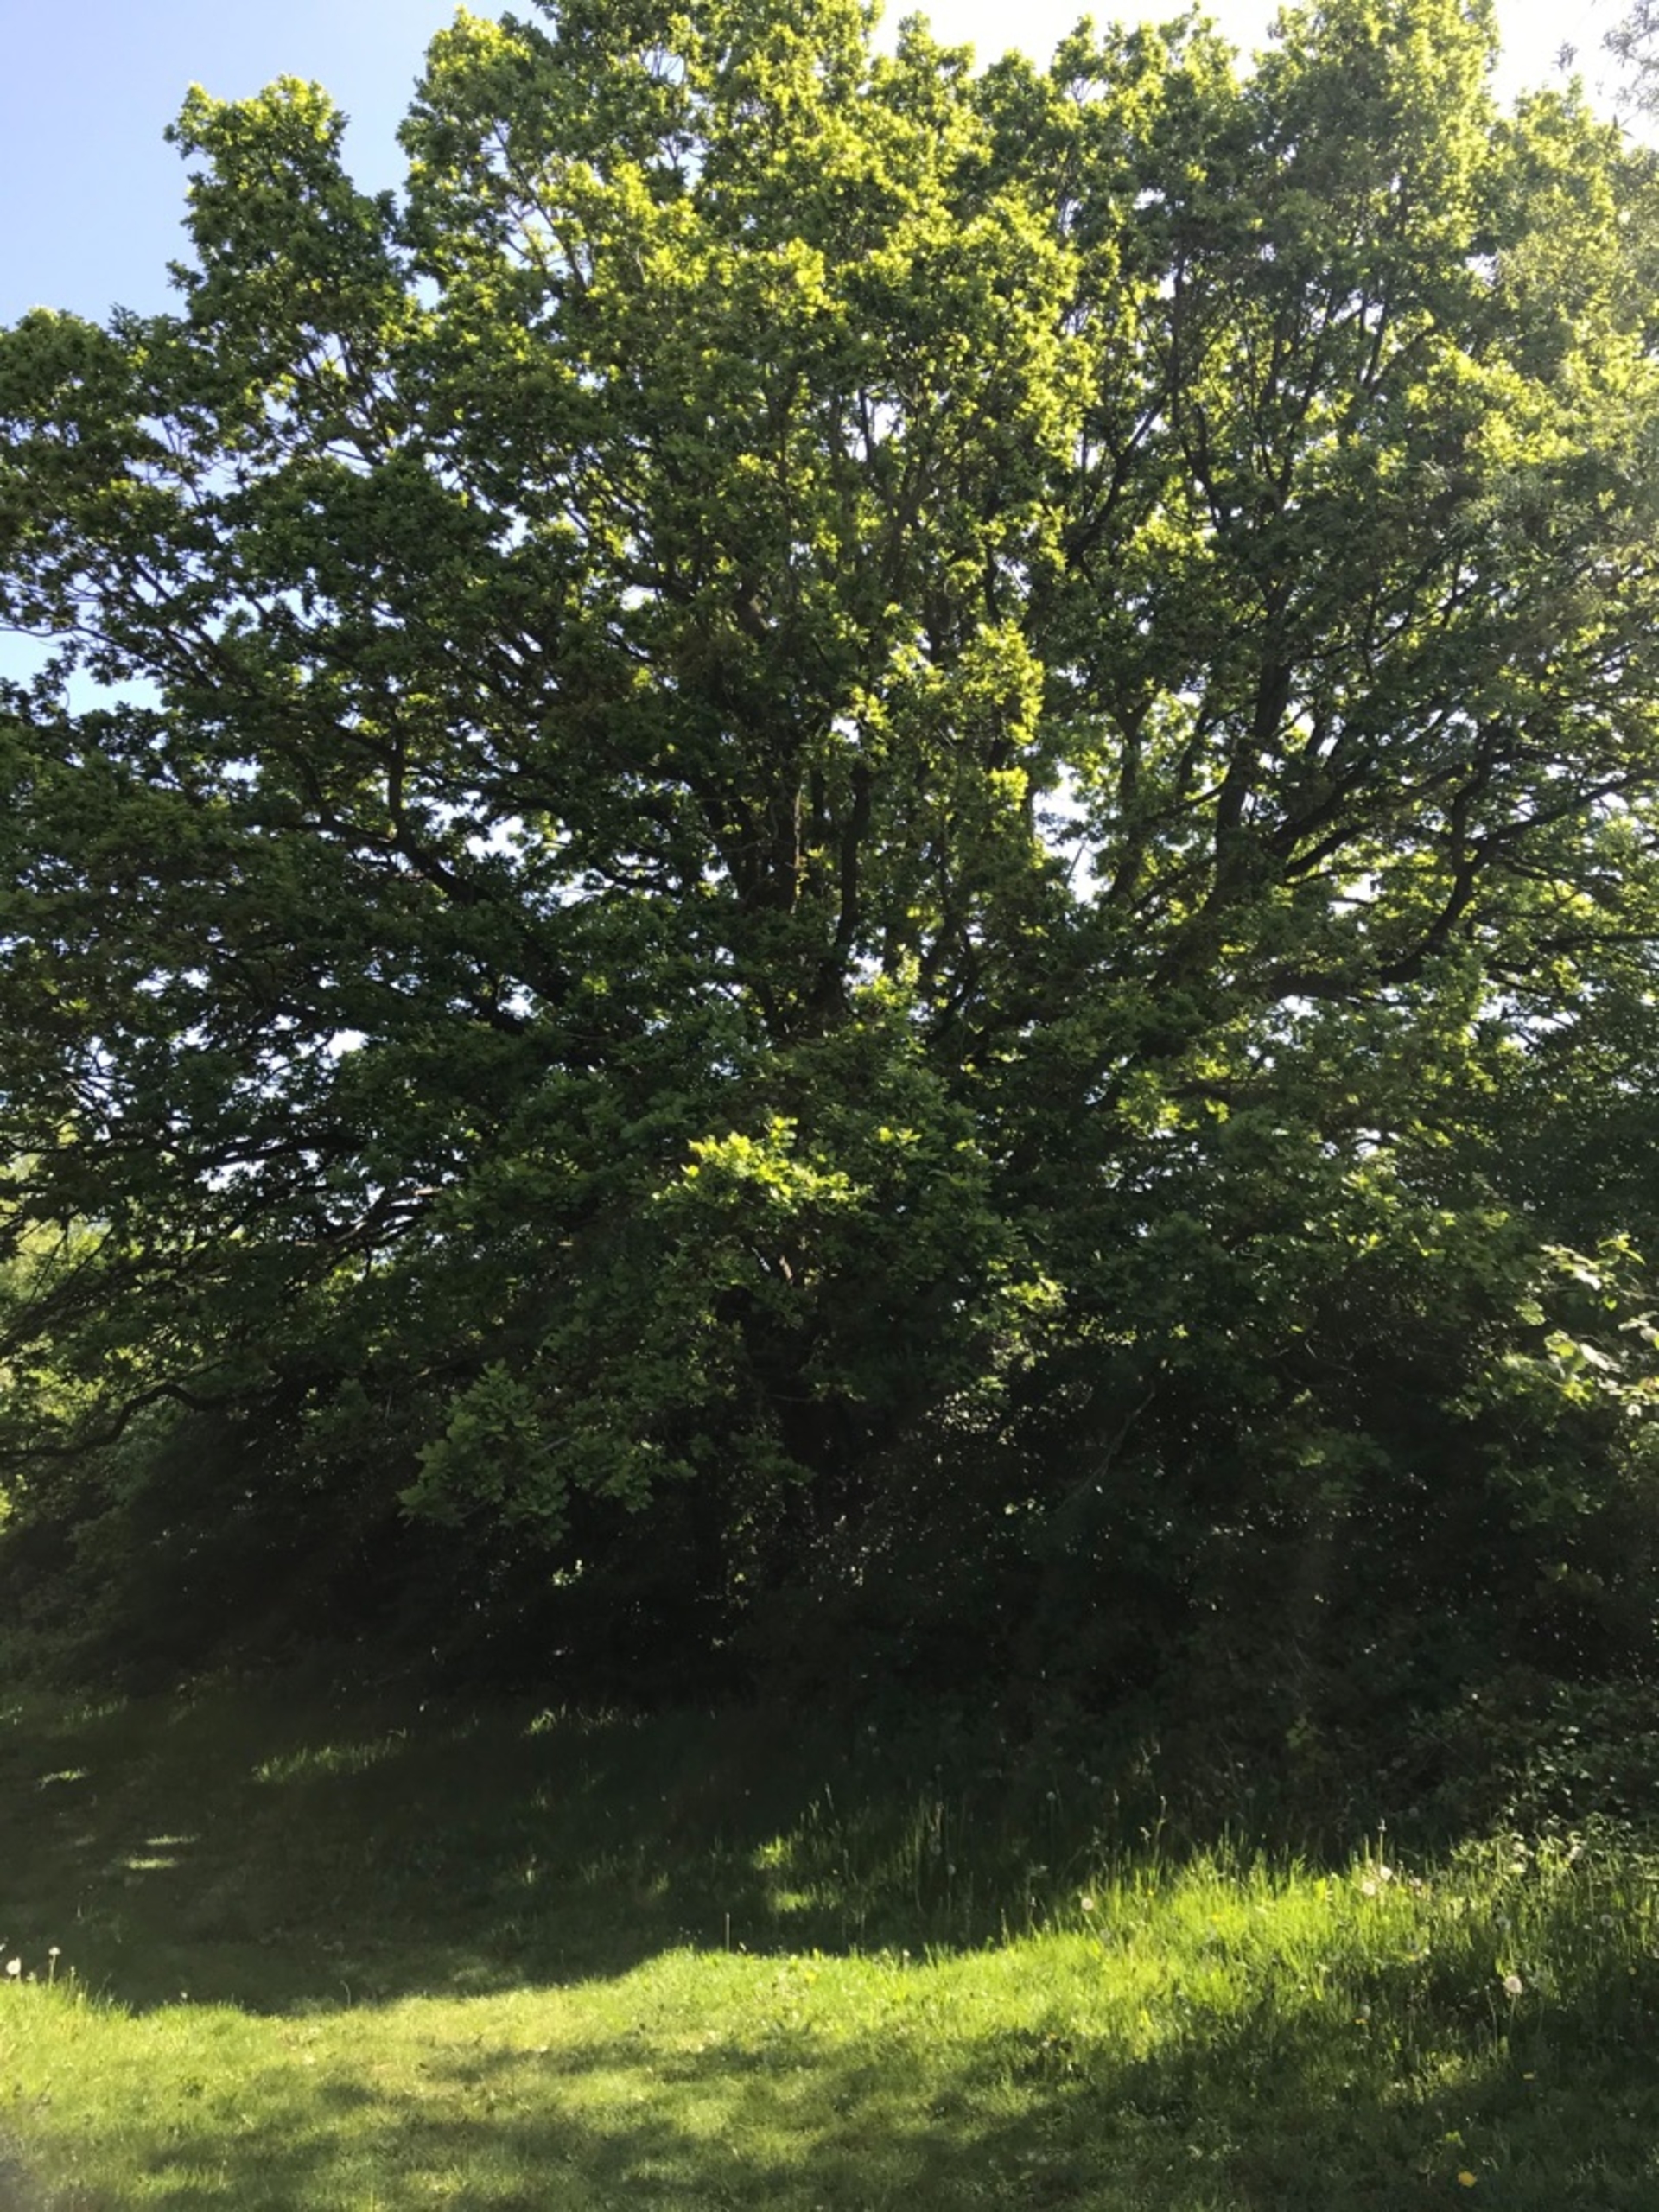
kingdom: Plantae
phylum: Tracheophyta
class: Magnoliopsida
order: Fagales
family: Fagaceae
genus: Quercus
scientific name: Quercus robur
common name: Stilk-eg/almindelig eg
